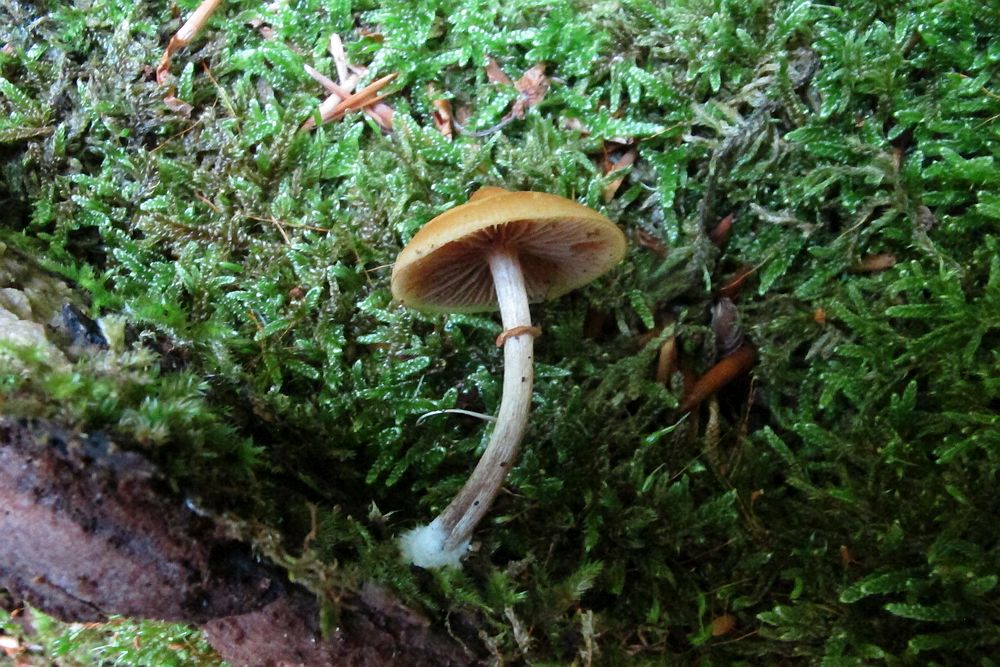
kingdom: Fungi
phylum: Basidiomycota
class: Agaricomycetes
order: Agaricales
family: Hymenogastraceae
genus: Galerina
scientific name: Galerina marginata
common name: randbæltet hjelmhat
